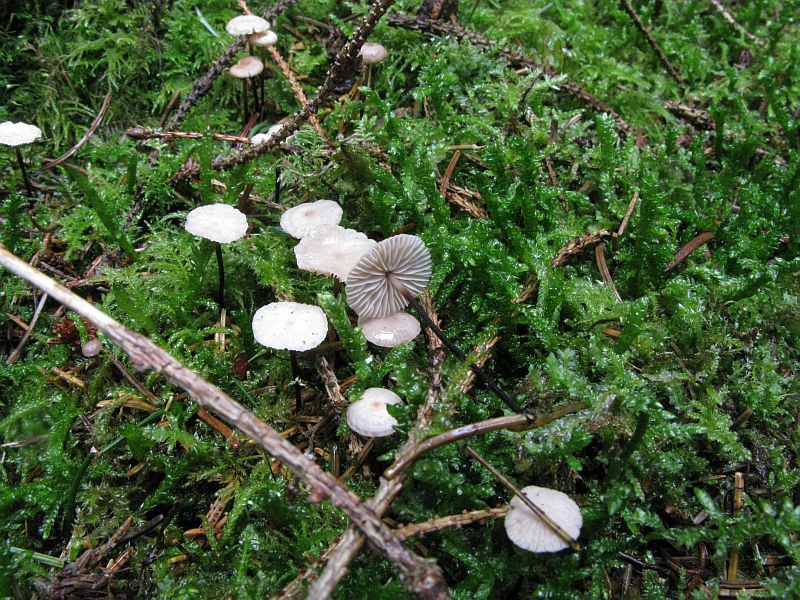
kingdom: Fungi
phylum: Basidiomycota
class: Agaricomycetes
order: Agaricales
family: Omphalotaceae
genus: Paragymnopus
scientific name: Paragymnopus perforans
